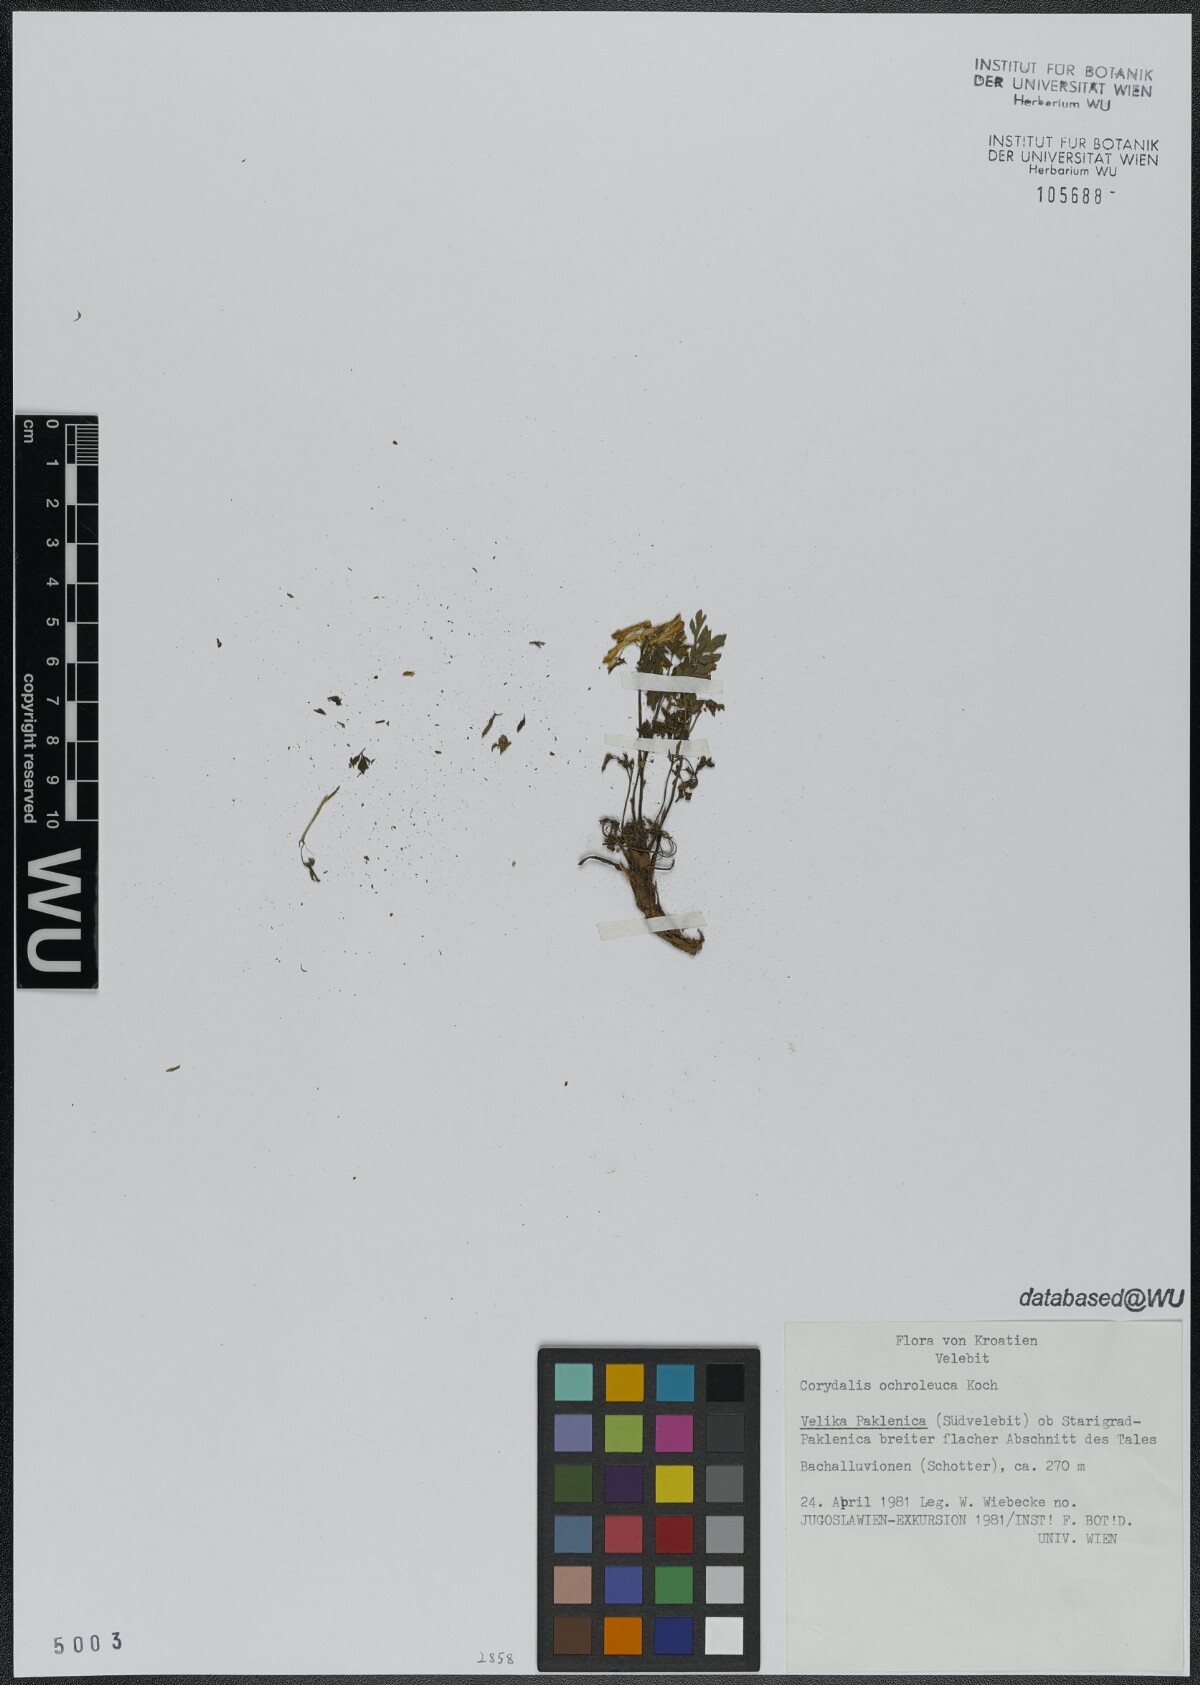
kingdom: Plantae
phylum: Tracheophyta
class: Magnoliopsida
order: Ranunculales
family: Papaveraceae
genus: Pseudofumaria
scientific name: Pseudofumaria alba
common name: Pale corydalis
